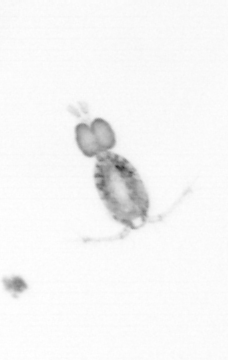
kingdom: Animalia
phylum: Arthropoda
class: Copepoda
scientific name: Copepoda
